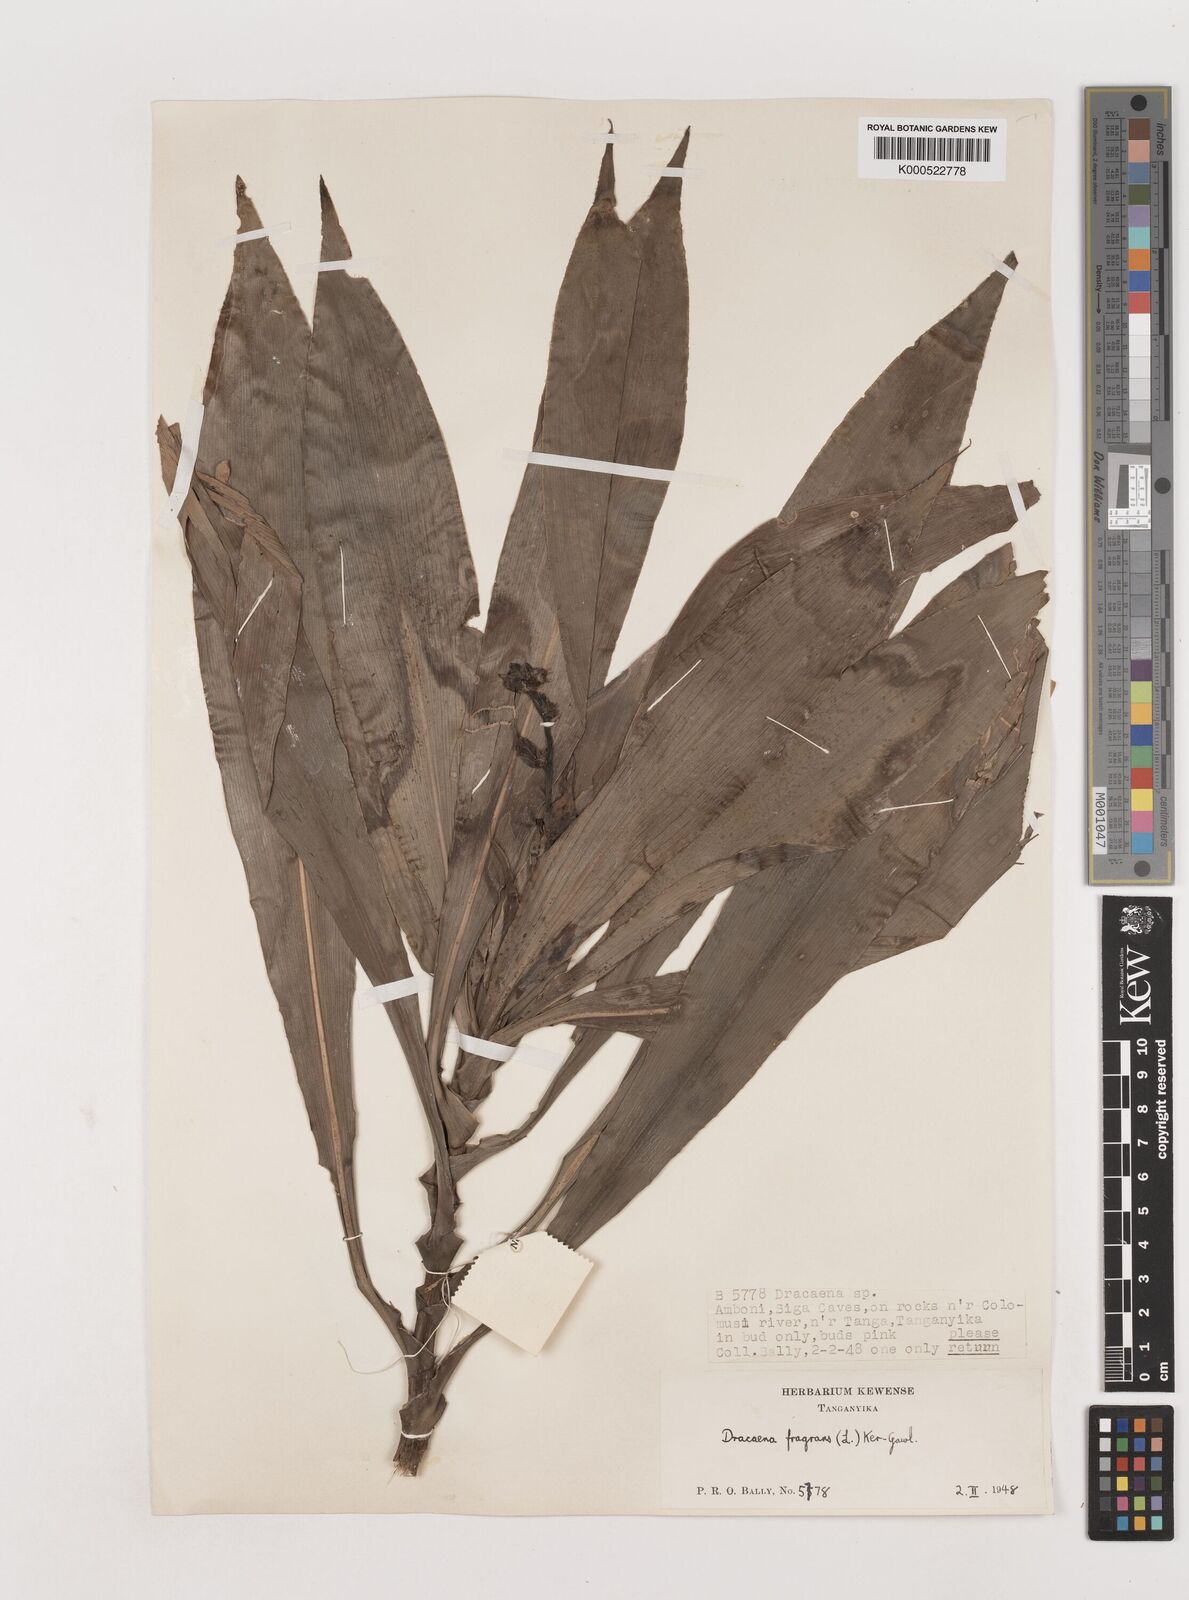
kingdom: Plantae
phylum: Tracheophyta
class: Liliopsida
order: Asparagales
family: Asparagaceae
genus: Dracaena
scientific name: Dracaena fragrans
